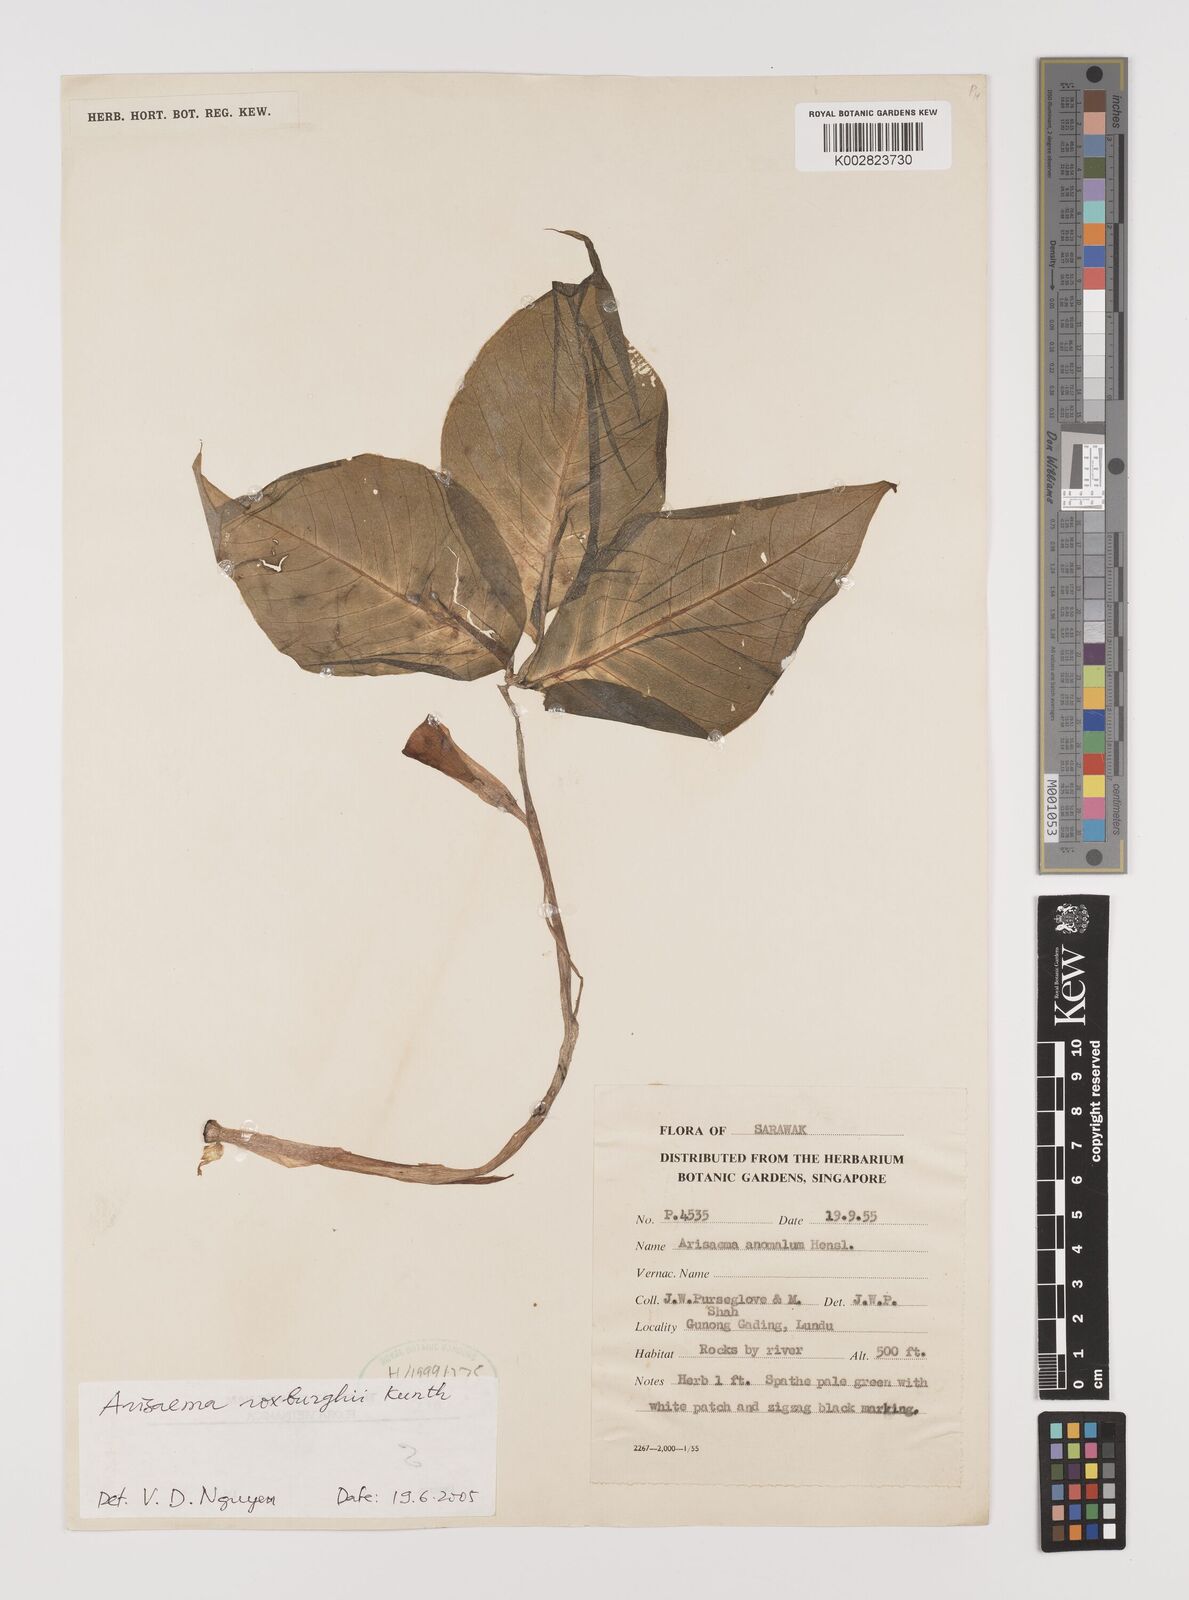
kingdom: Plantae
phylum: Tracheophyta
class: Liliopsida
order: Alismatales
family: Araceae
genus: Arisaema
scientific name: Arisaema roxburghii
